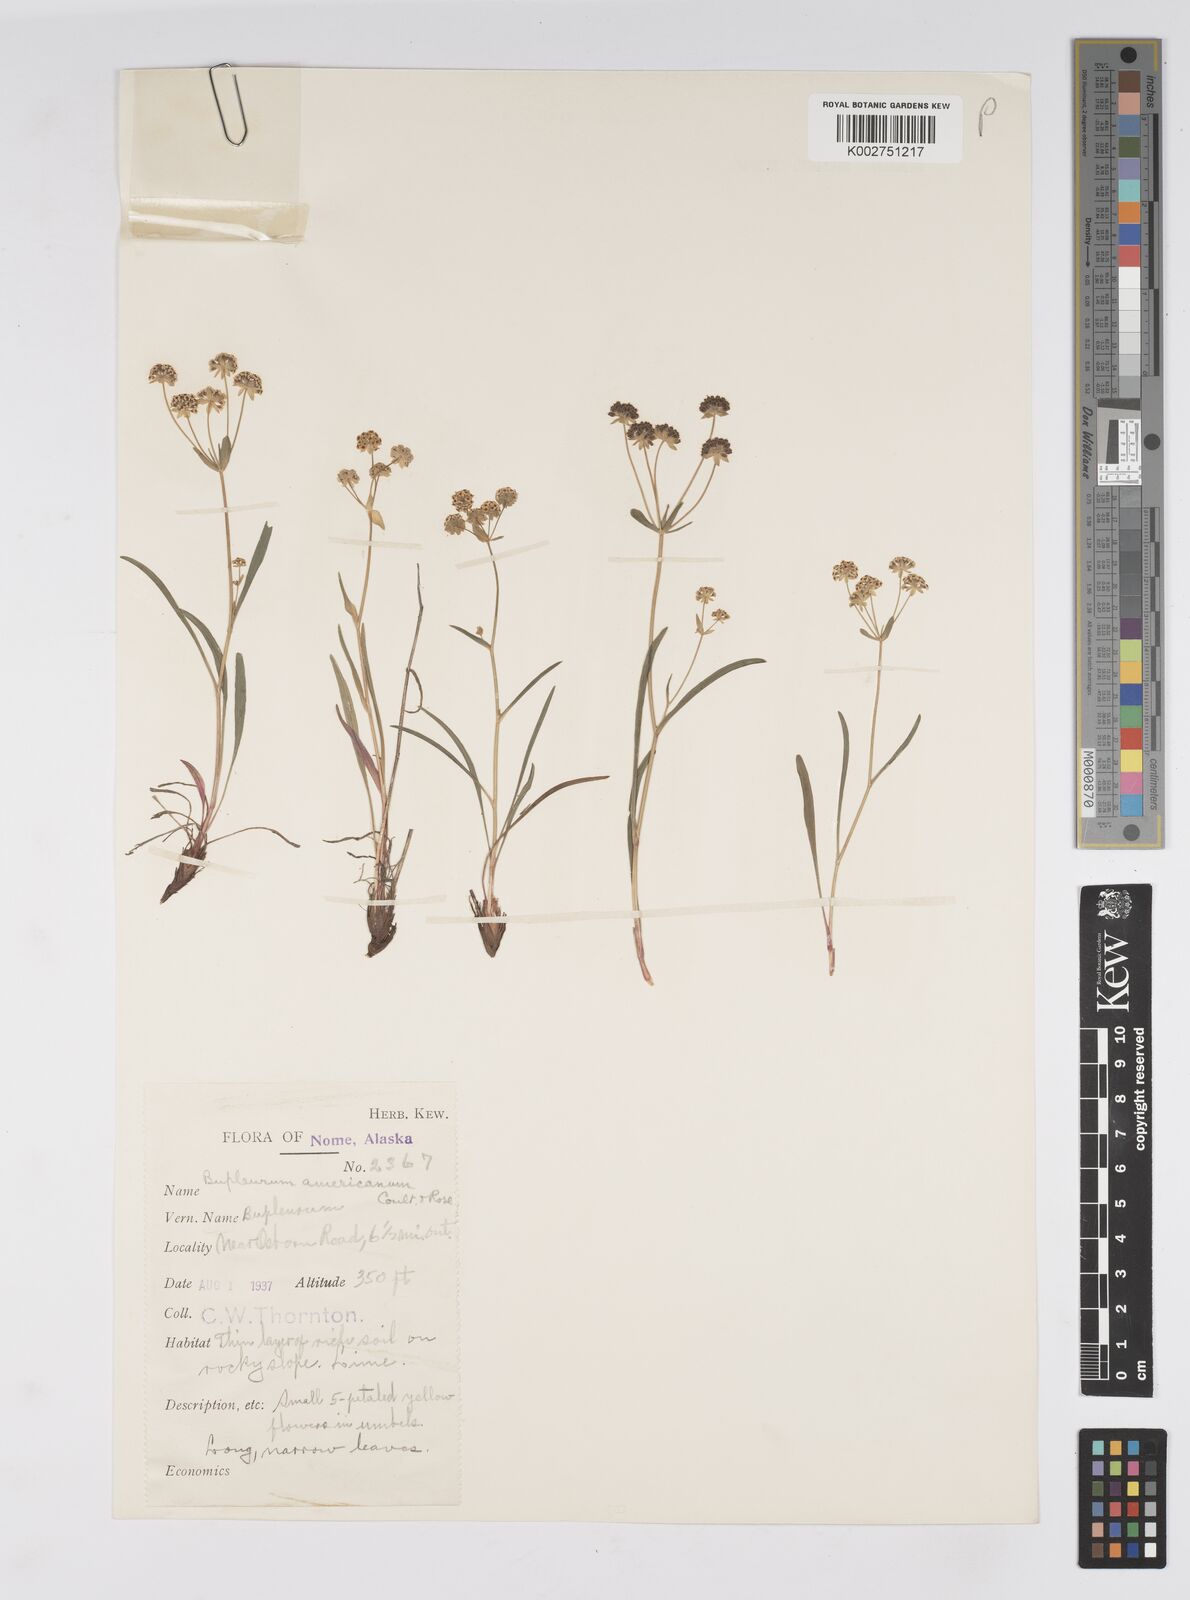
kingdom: Plantae
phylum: Tracheophyta
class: Magnoliopsida
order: Apiales
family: Apiaceae
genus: Bupleurum
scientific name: Bupleurum americanum
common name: American thoroughwax
